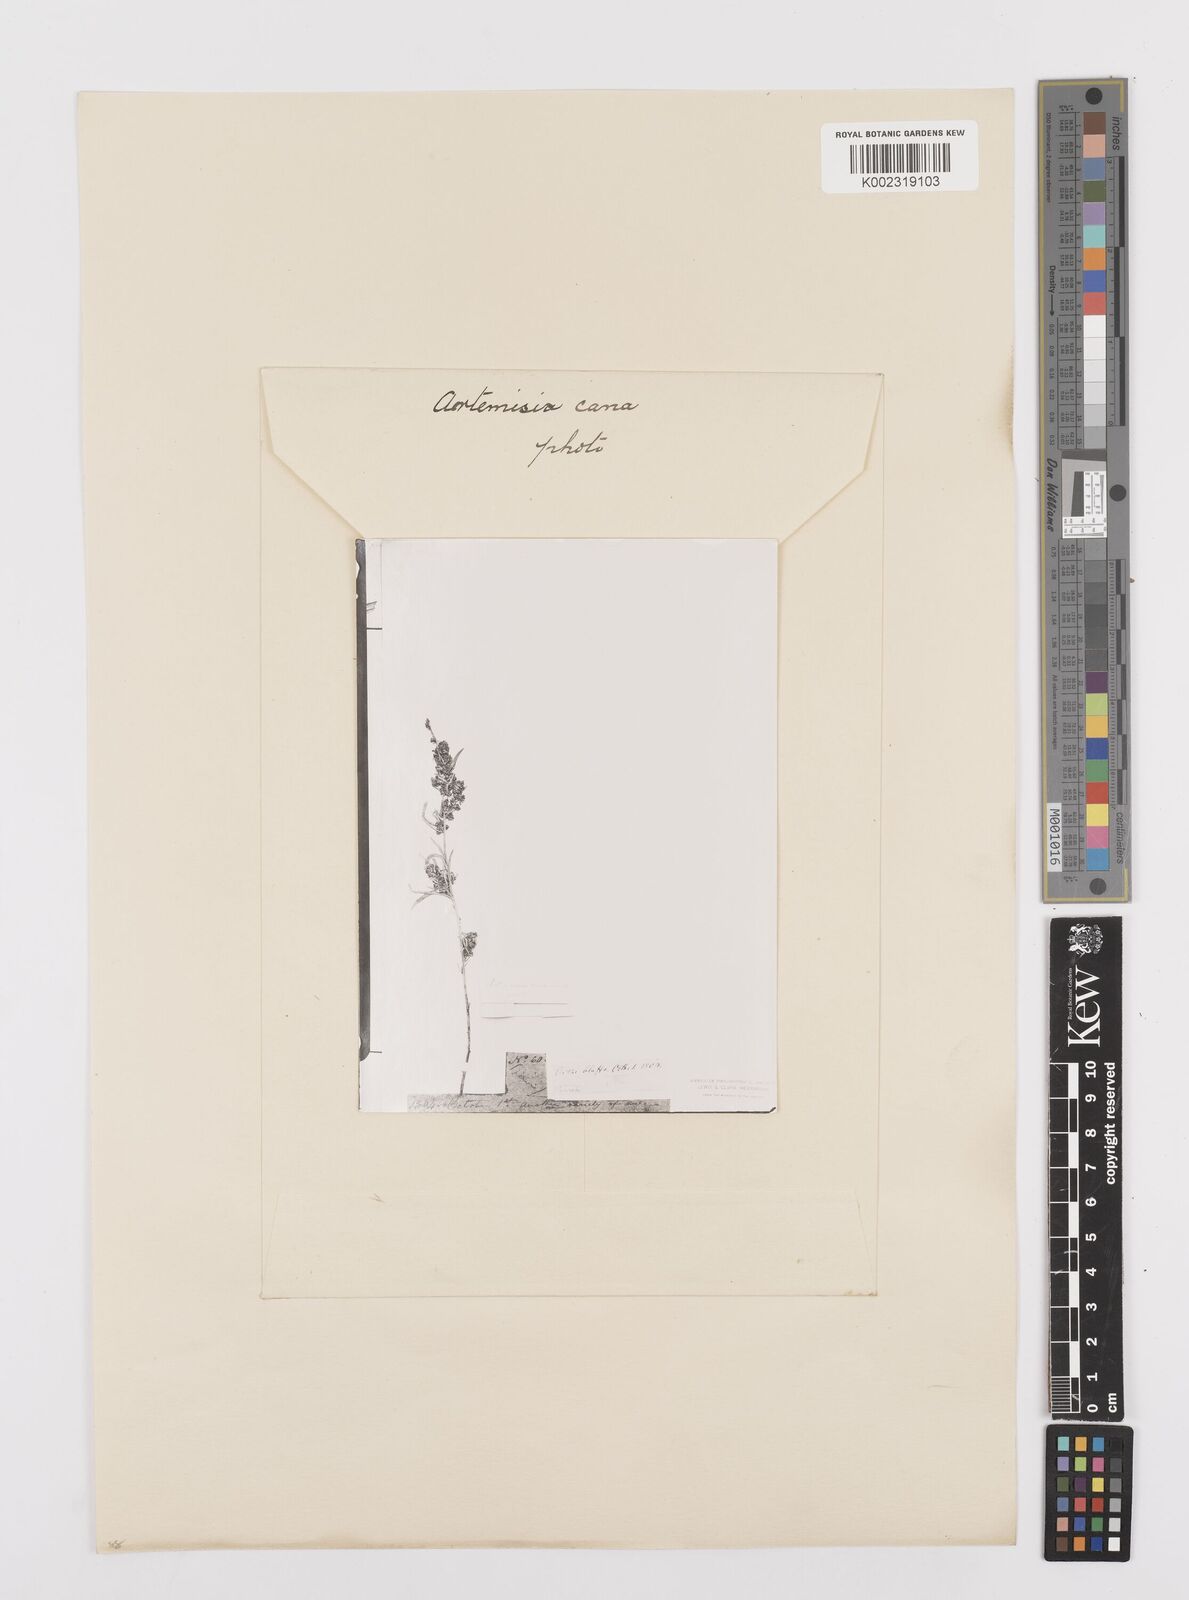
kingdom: Plantae
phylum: Tracheophyta
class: Magnoliopsida
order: Asterales
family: Asteraceae
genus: Artemisia
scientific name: Artemisia cana
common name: Silver sagebrush
